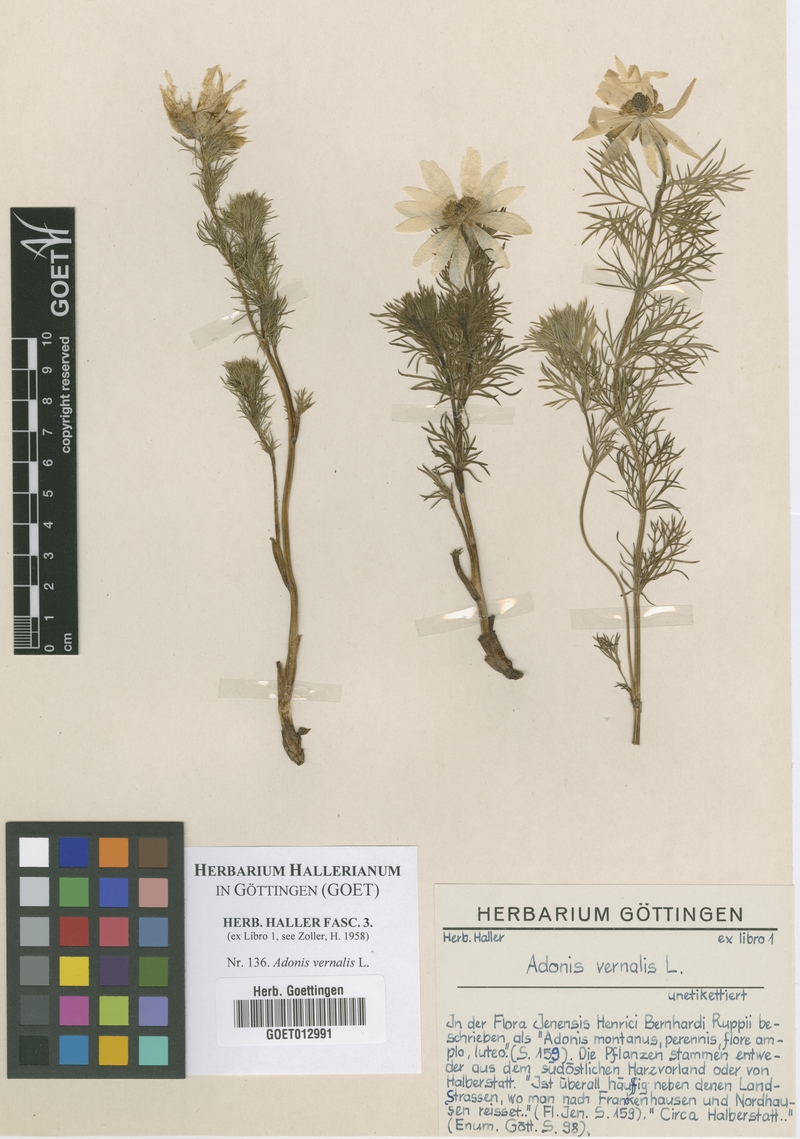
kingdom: Plantae
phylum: Tracheophyta
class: Magnoliopsida
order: Ranunculales
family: Ranunculaceae
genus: Adonis
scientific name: Adonis vernalis
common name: Yellow pheasants-eye
